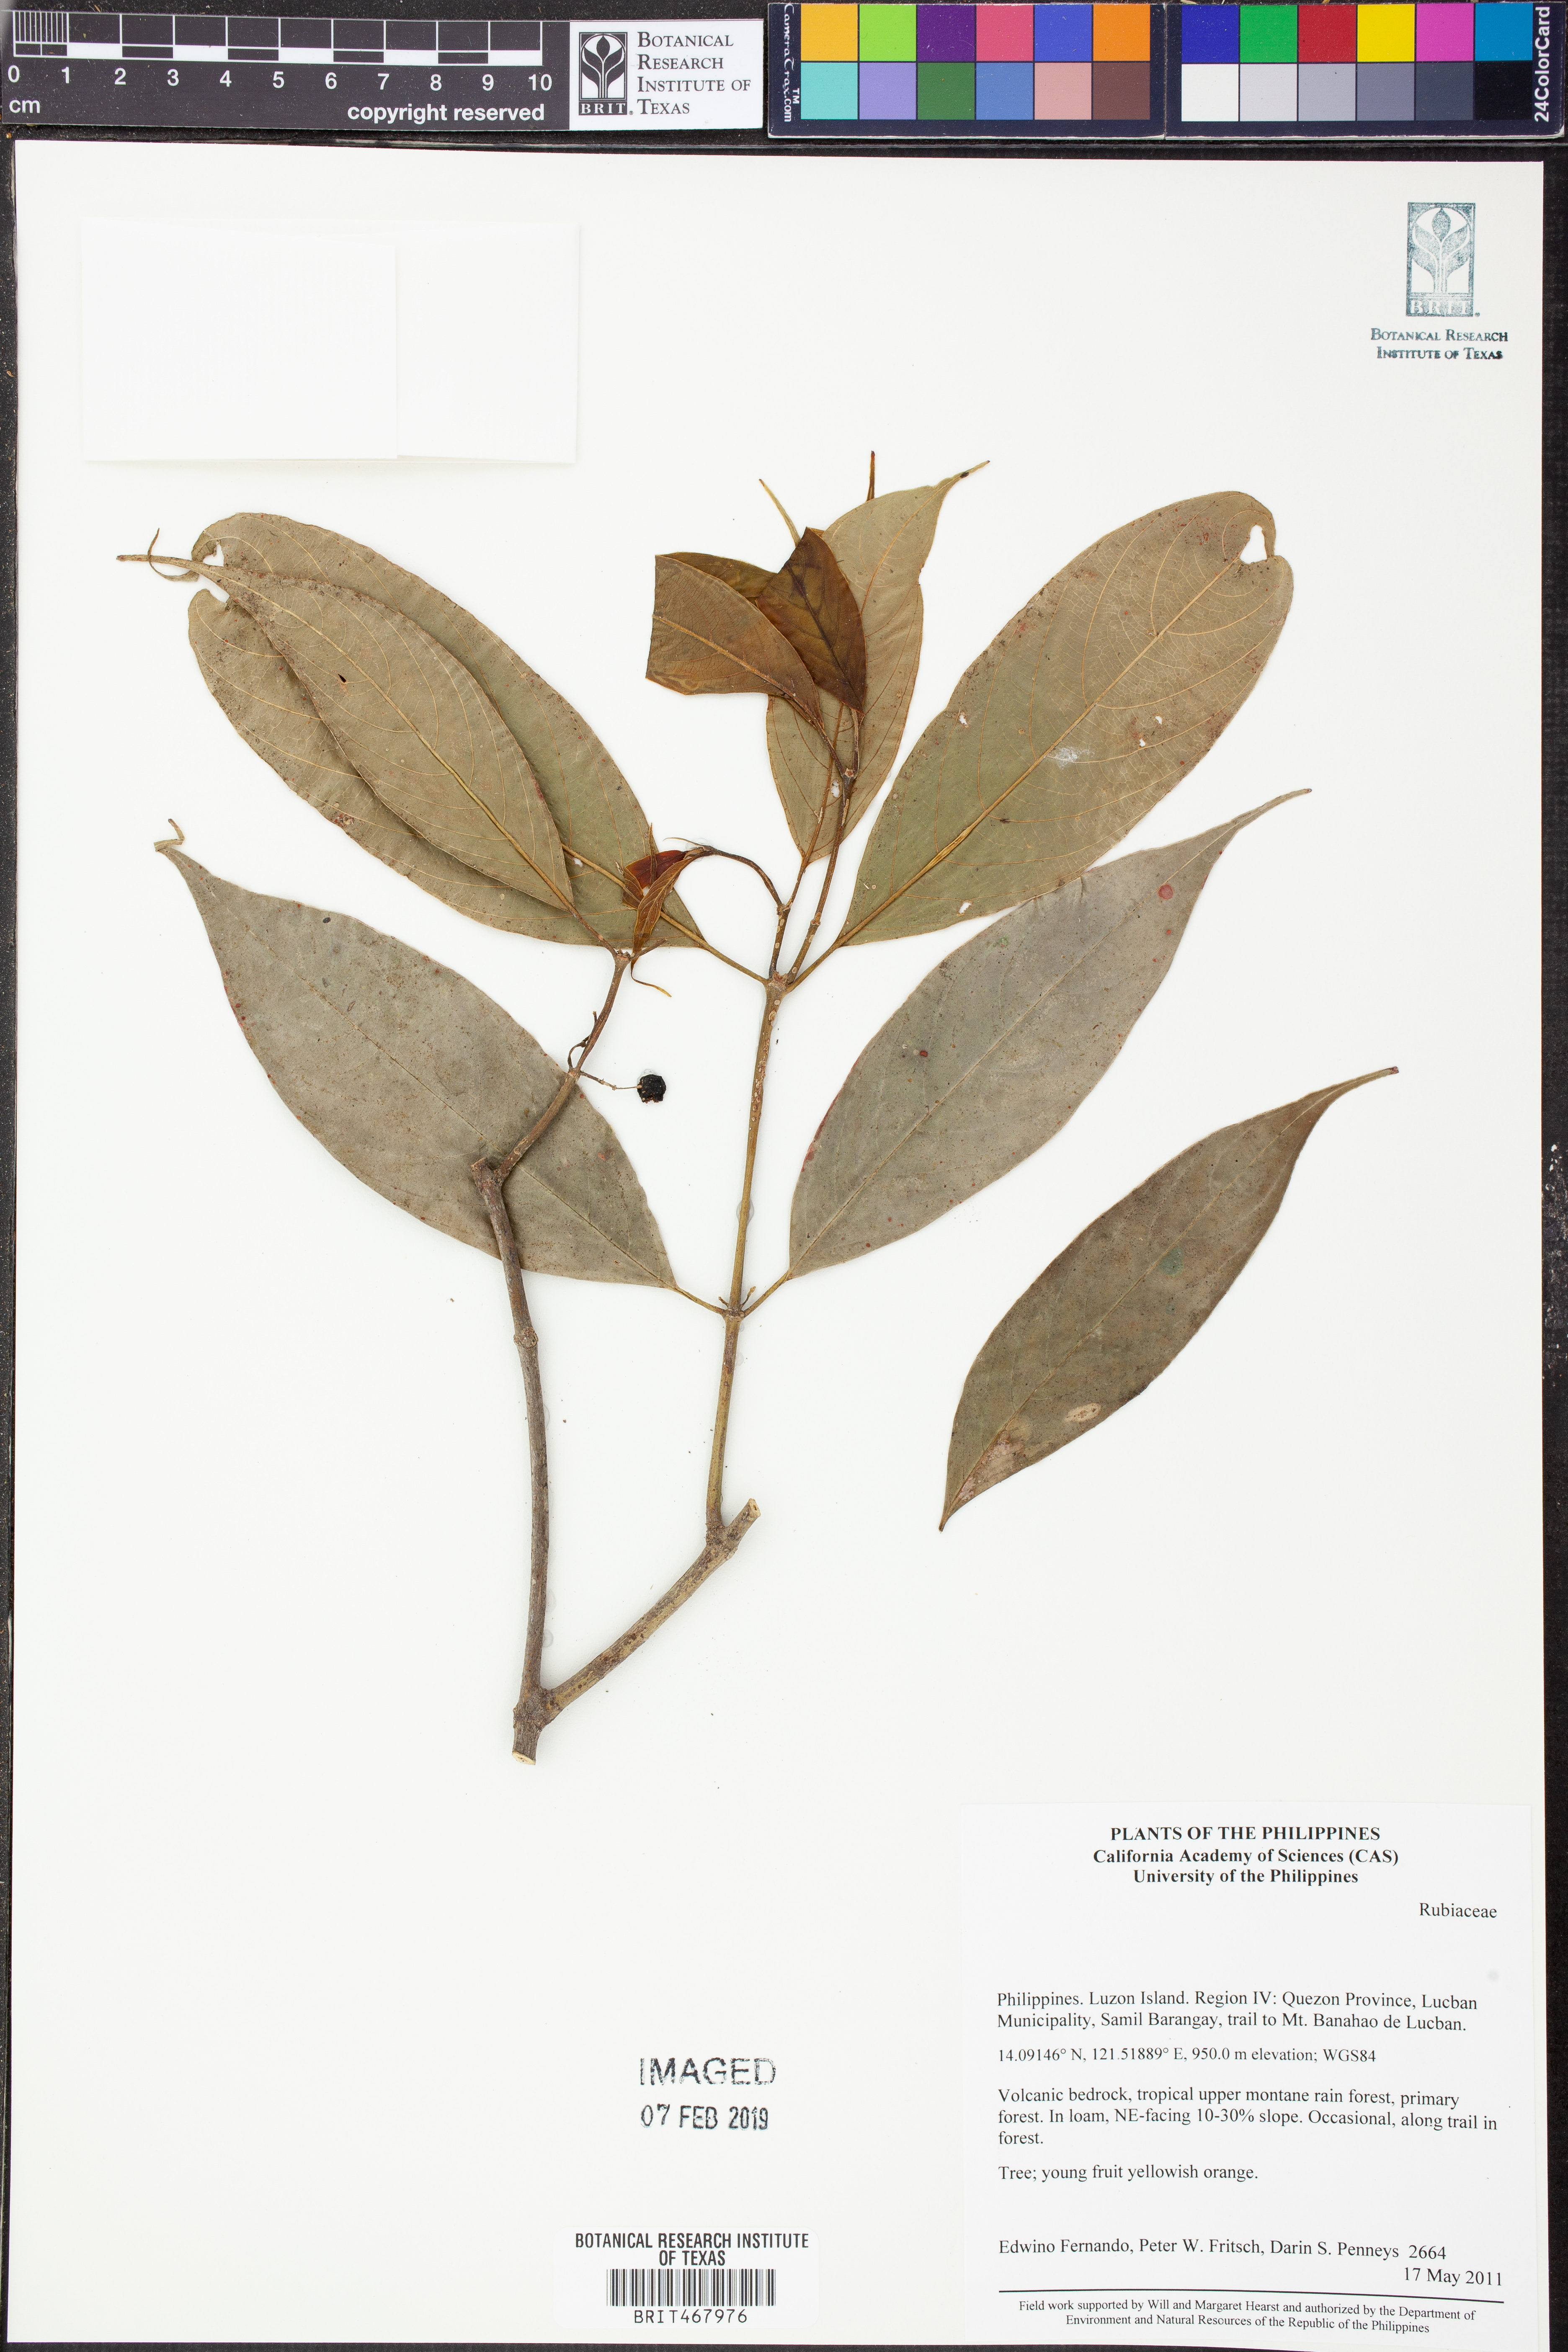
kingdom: Plantae
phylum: Tracheophyta
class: Magnoliopsida
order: Gentianales
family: Rubiaceae
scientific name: Rubiaceae
